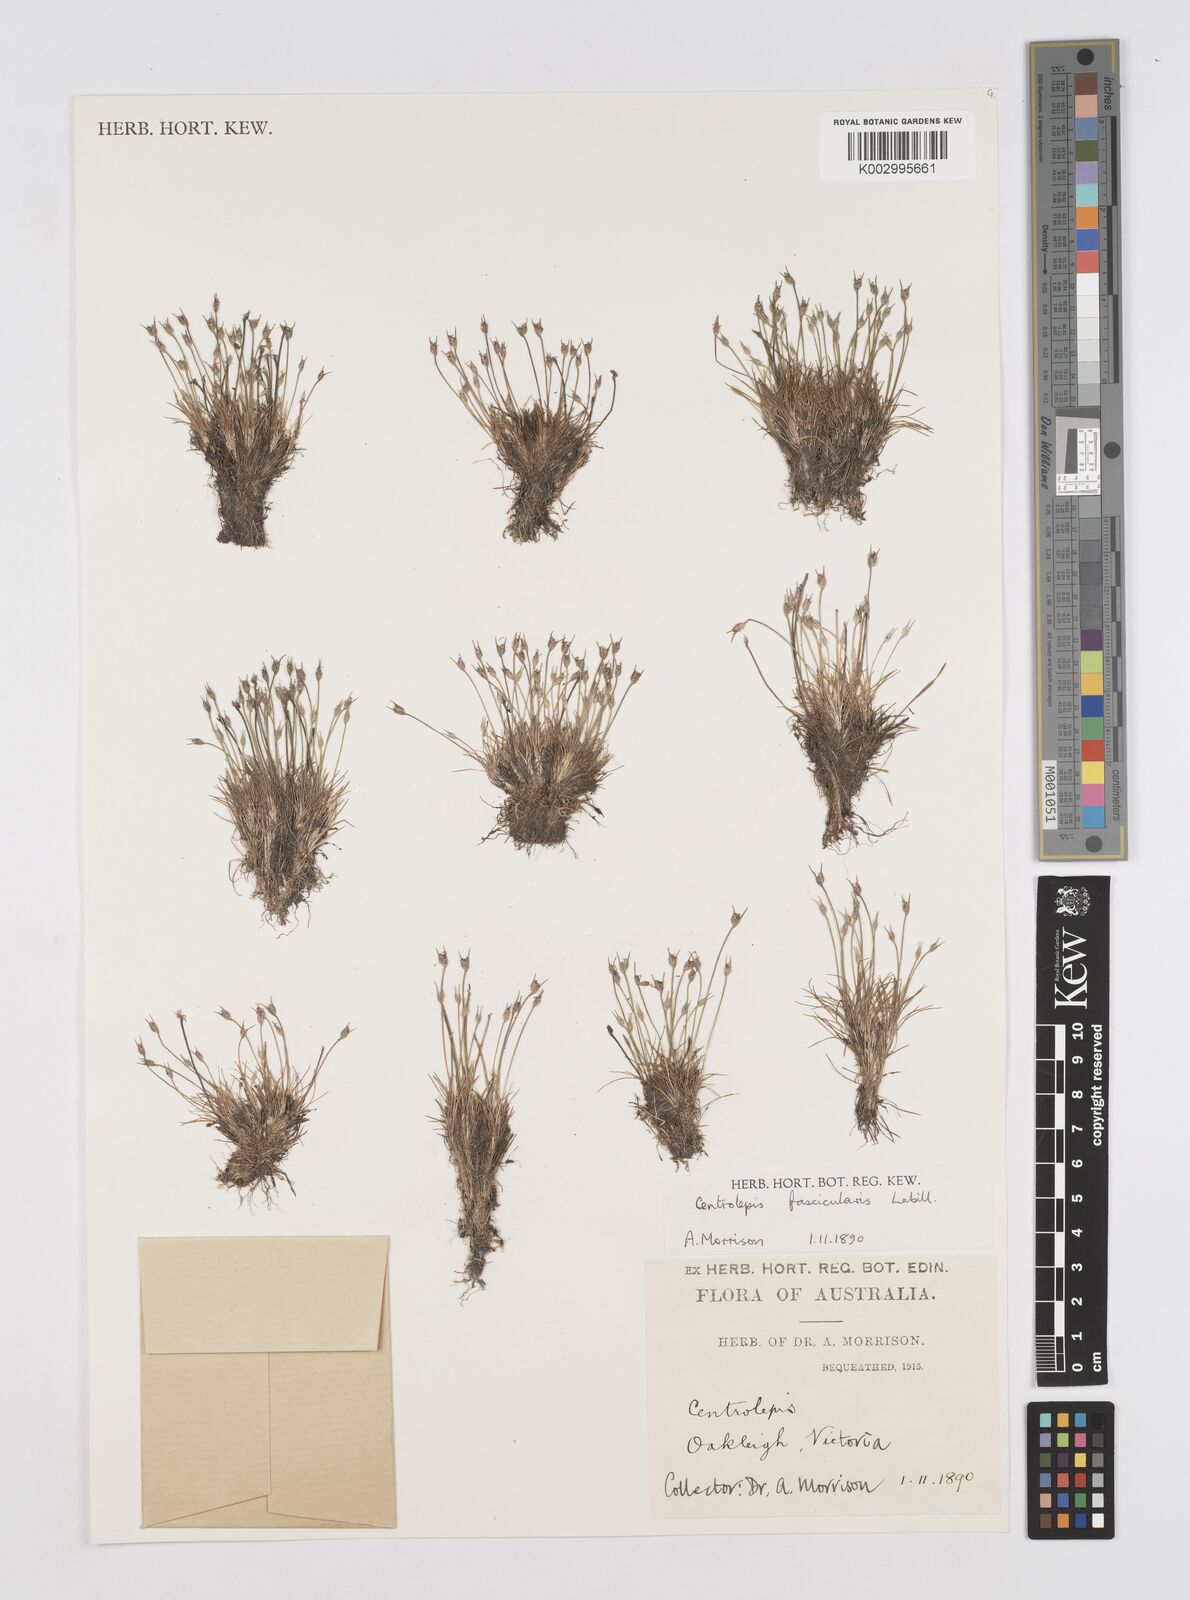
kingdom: Plantae
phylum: Tracheophyta
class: Liliopsida
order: Poales
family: Restionaceae
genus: Centrolepis
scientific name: Centrolepis fascicularis
